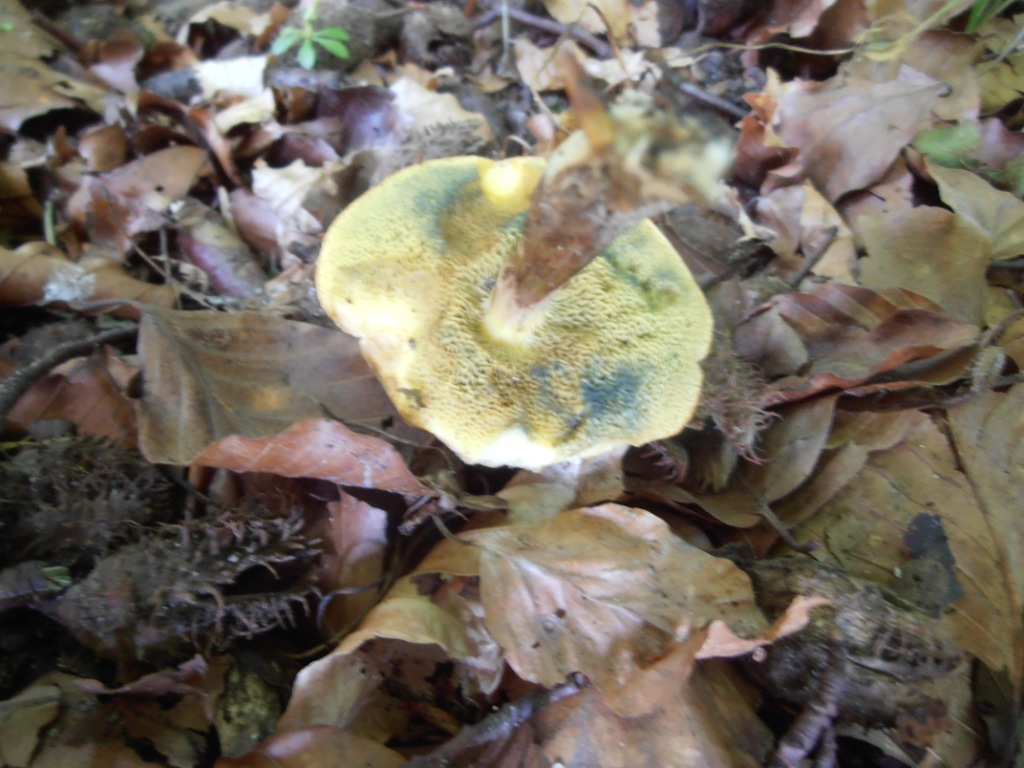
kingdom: Fungi
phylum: Basidiomycota
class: Agaricomycetes
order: Boletales
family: Boletaceae
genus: Xerocomellus
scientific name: Xerocomellus porosporus
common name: hvidsprukken rørhat
